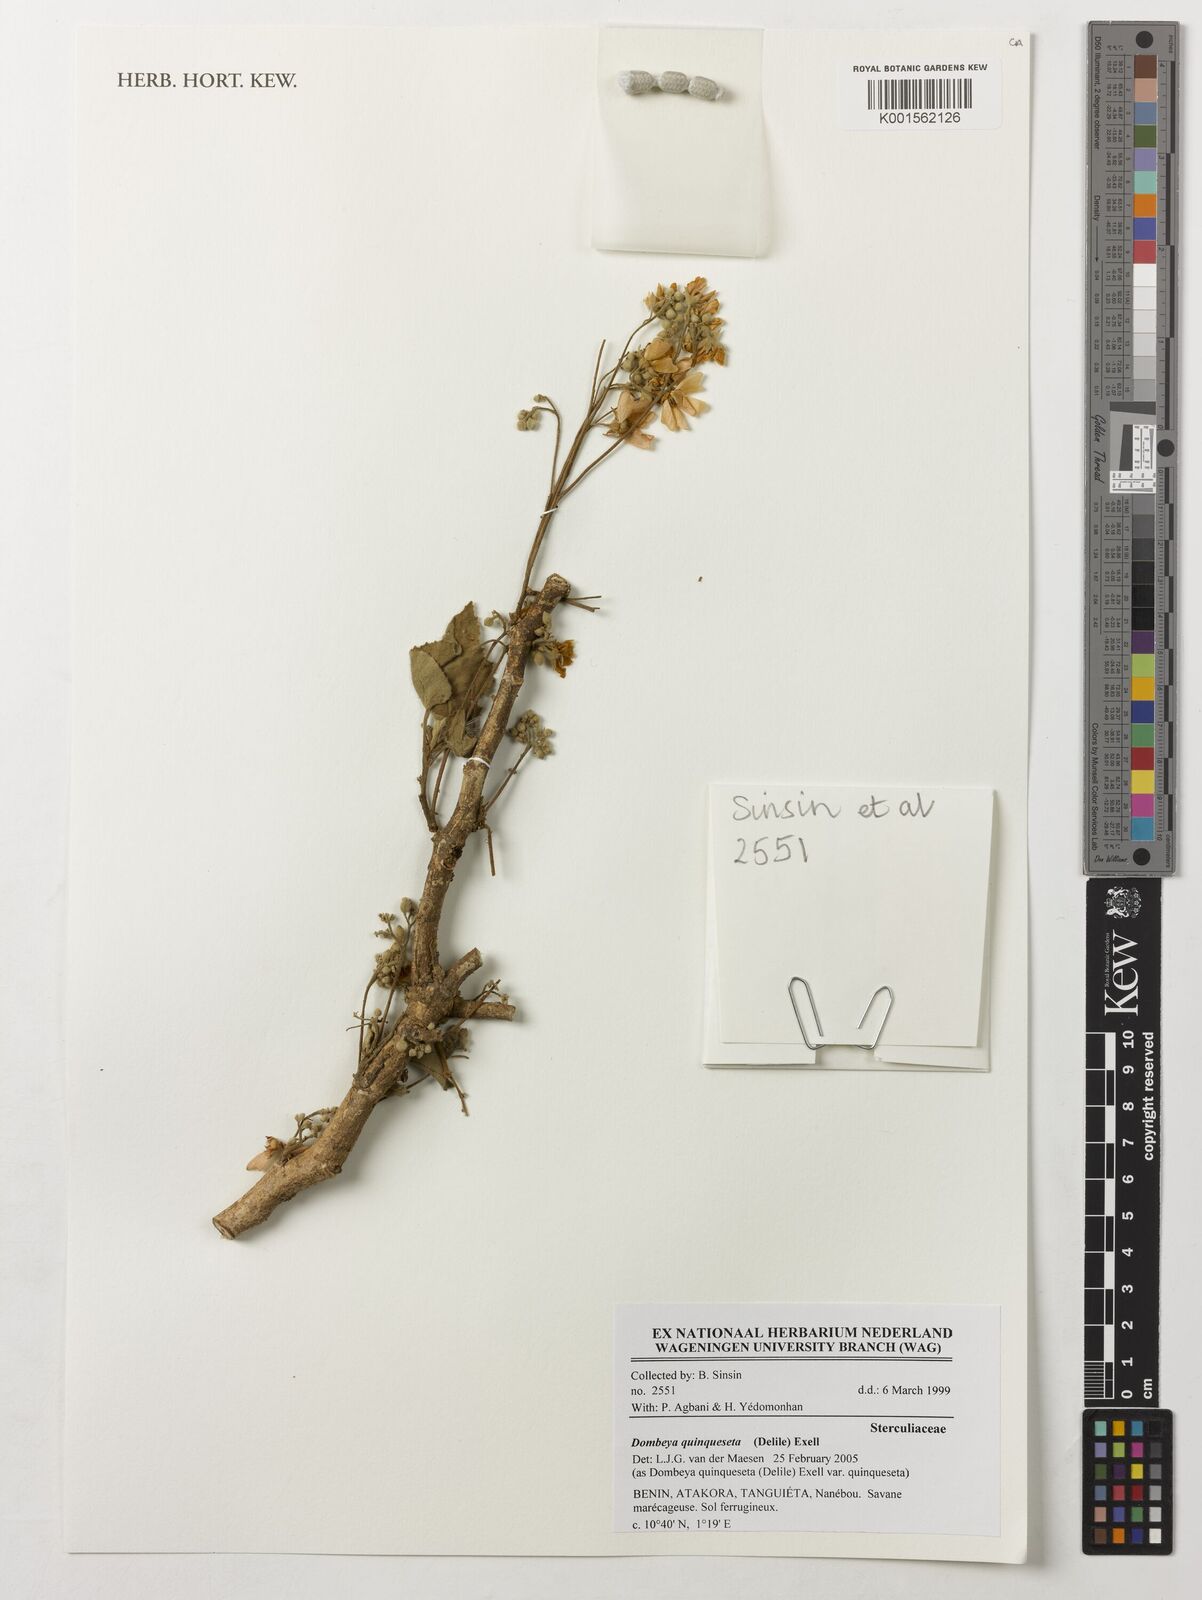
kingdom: Plantae
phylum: Tracheophyta
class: Magnoliopsida
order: Malvales
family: Malvaceae
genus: Dombeya
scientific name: Dombeya quinqueseta
